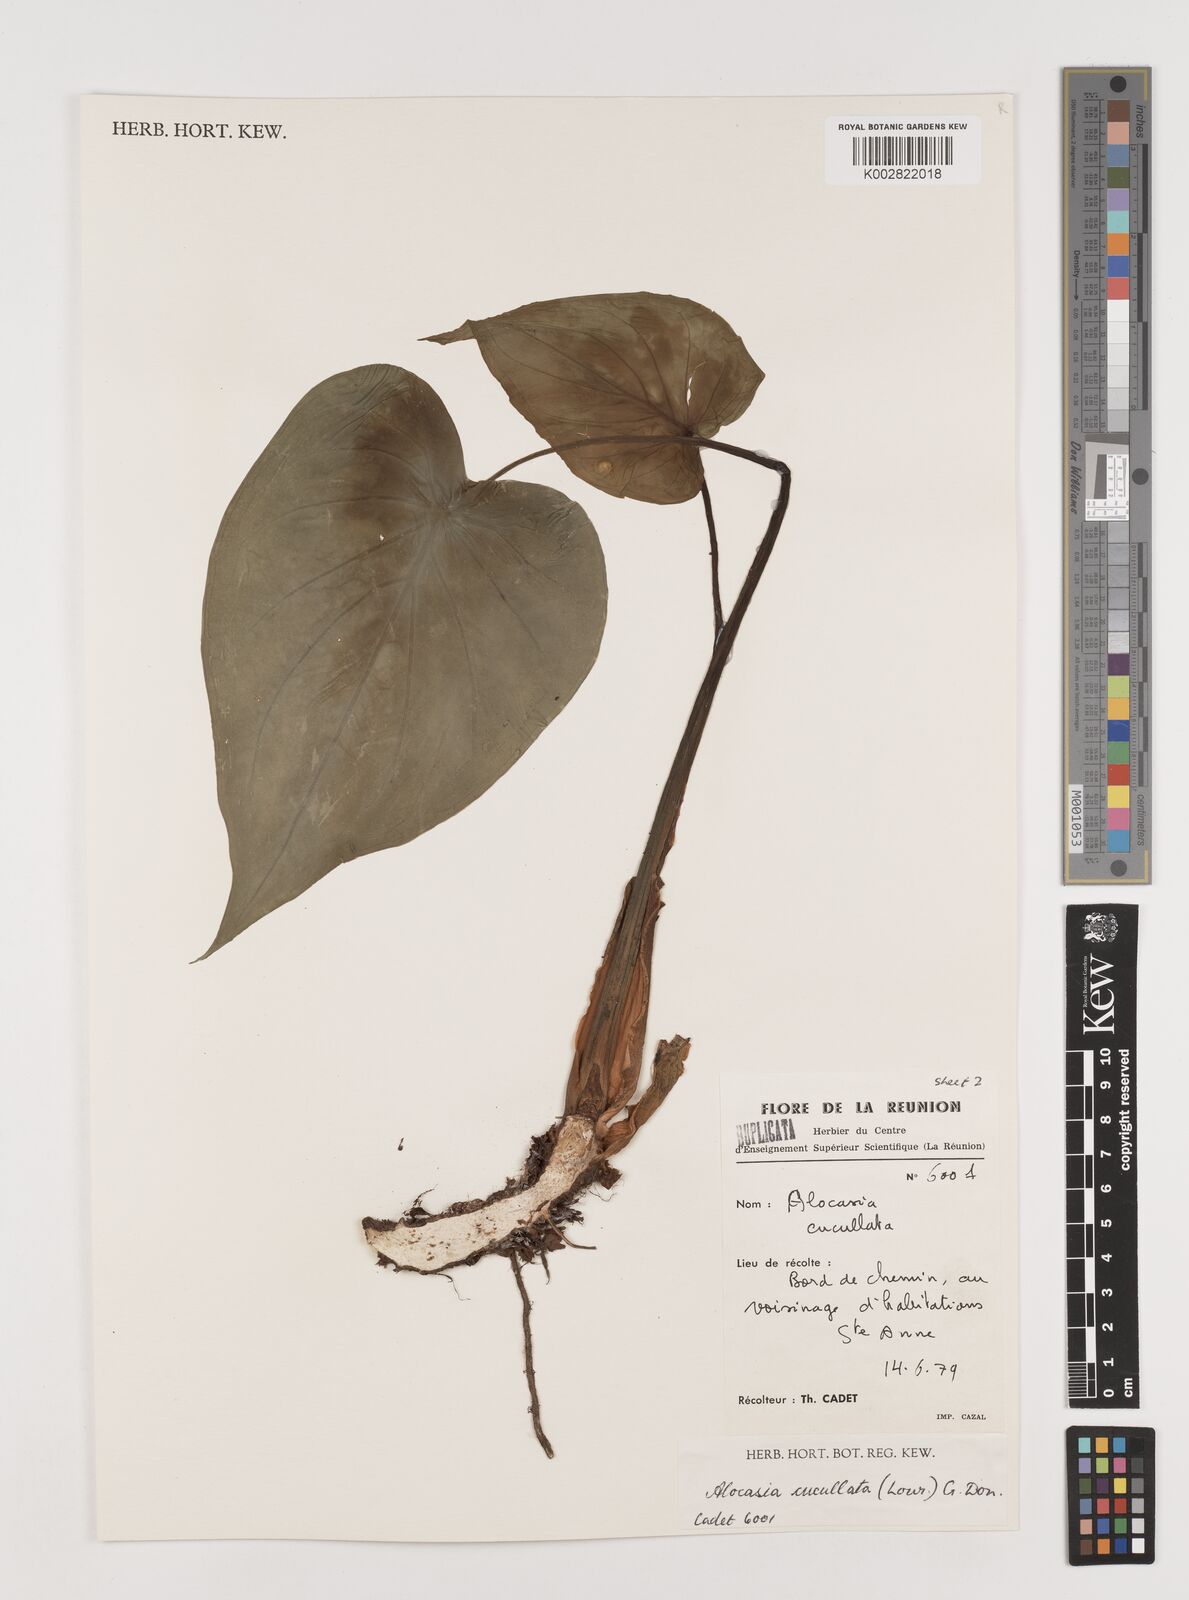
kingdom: Plantae
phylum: Tracheophyta
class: Liliopsida
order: Alismatales
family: Araceae
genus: Alocasia
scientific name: Alocasia cucullata
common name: Buddha's hand
